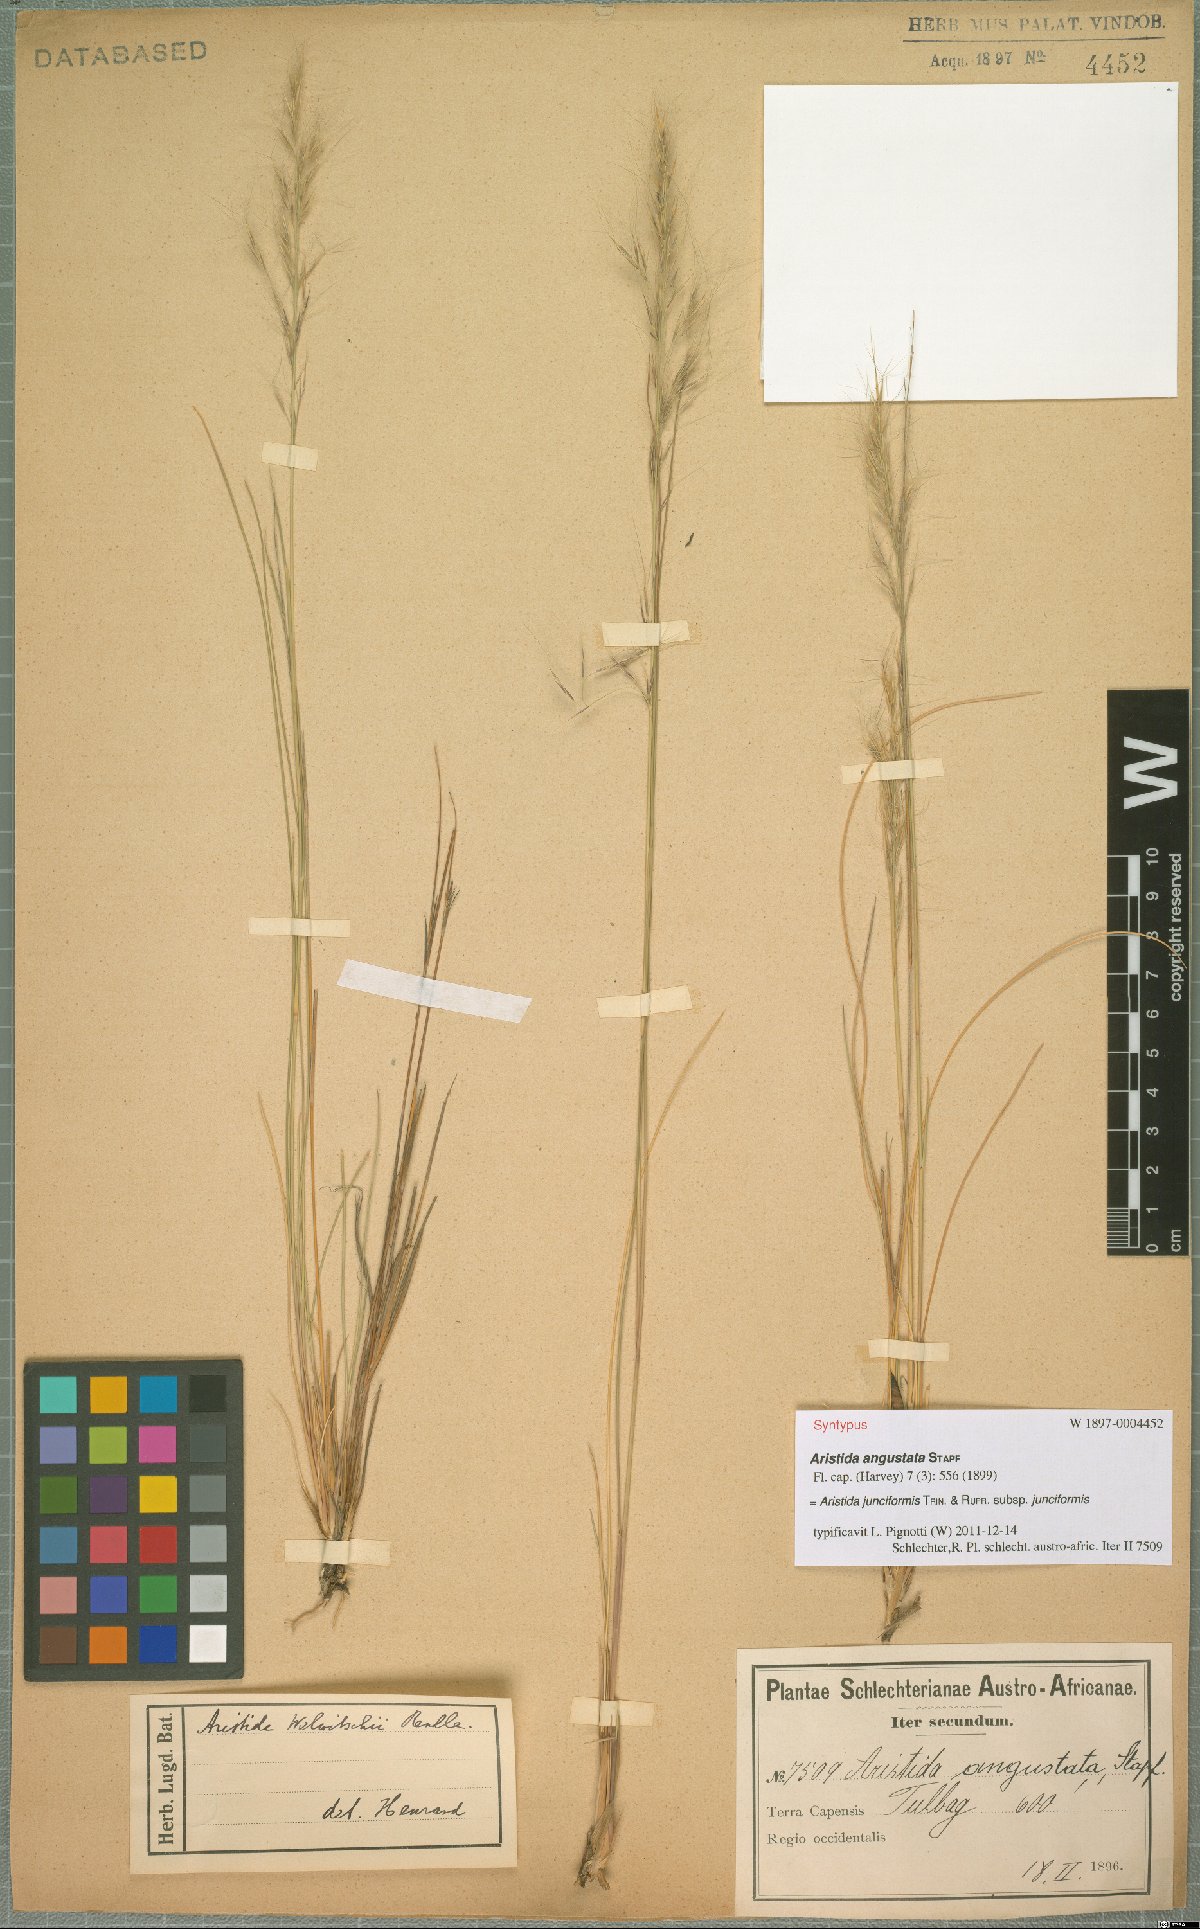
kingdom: Plantae
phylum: Tracheophyta
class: Liliopsida
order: Poales
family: Poaceae
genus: Aristida
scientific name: Aristida junciformis
